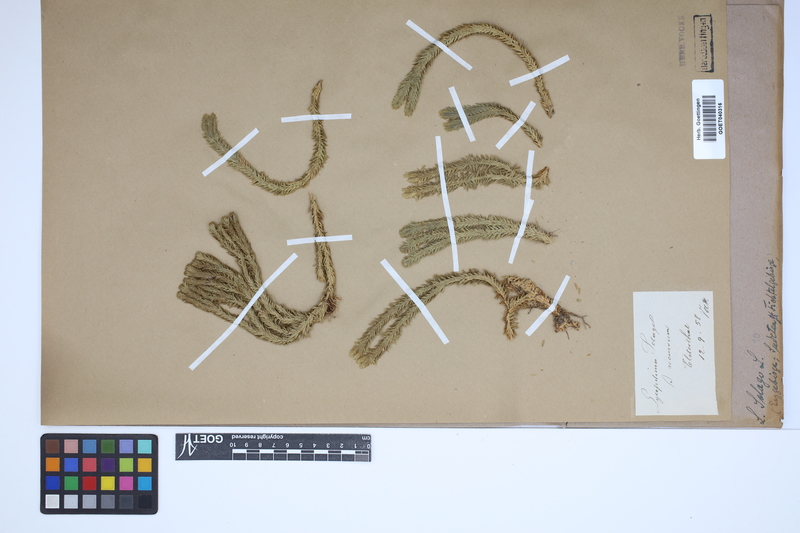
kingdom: Plantae
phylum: Tracheophyta
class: Lycopodiopsida
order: Lycopodiales
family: Lycopodiaceae
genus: Huperzia
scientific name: Huperzia selago
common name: Northern firmoss
